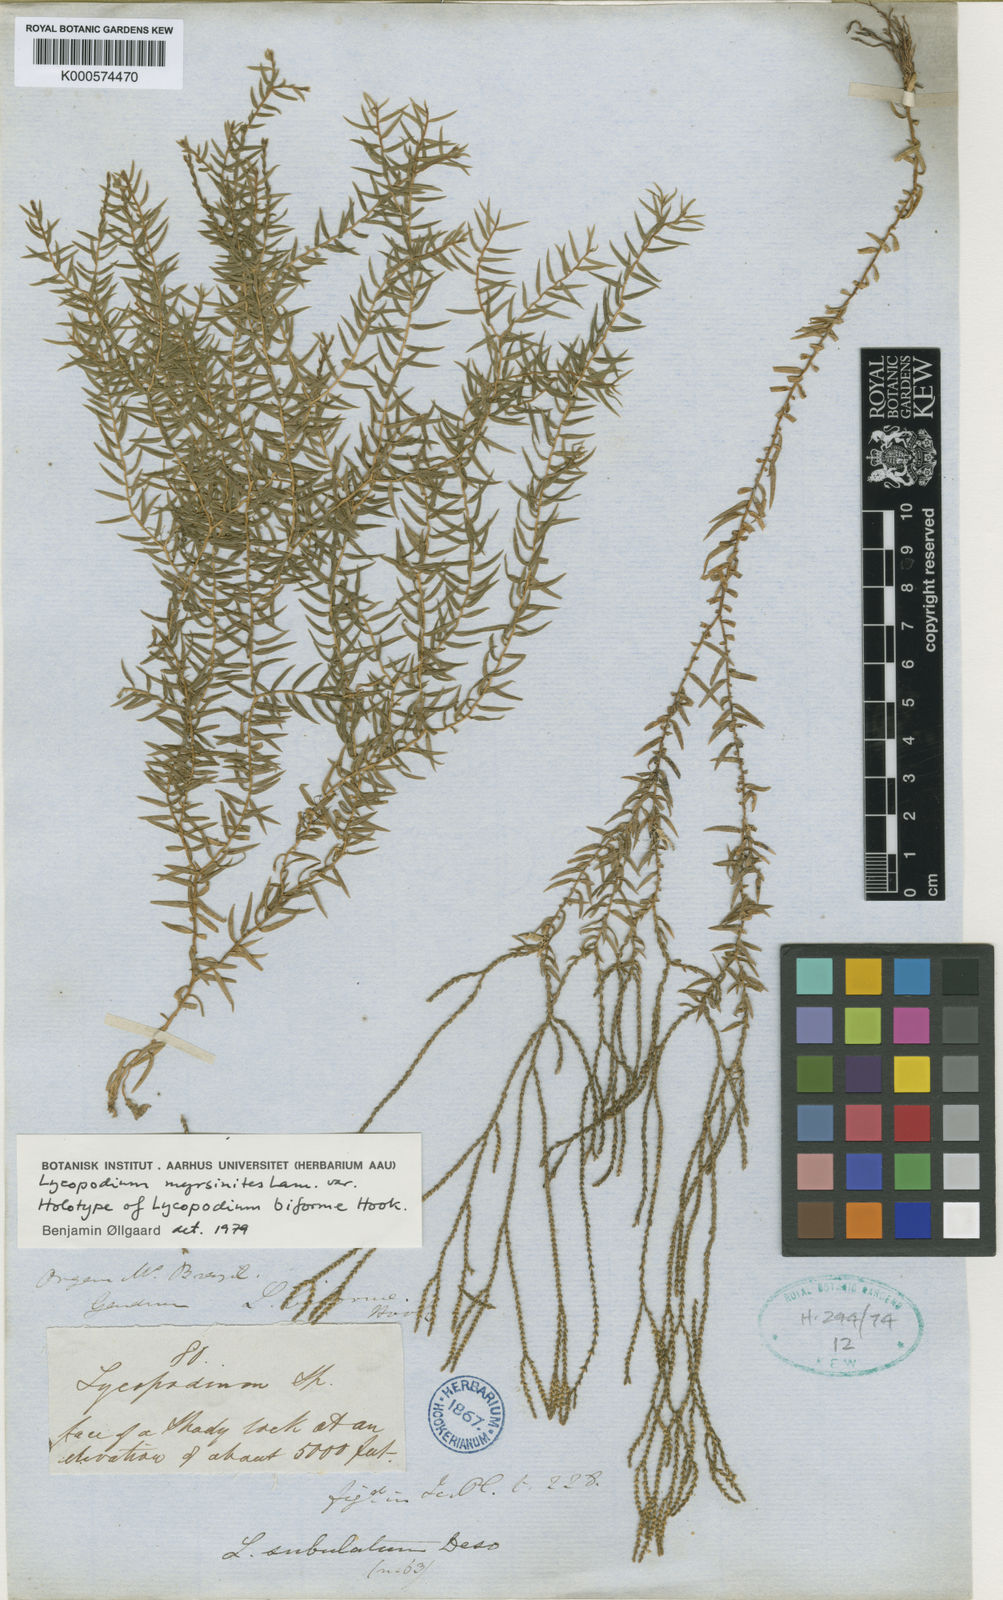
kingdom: Plantae
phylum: Tracheophyta
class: Lycopodiopsida
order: Lycopodiales
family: Lycopodiaceae
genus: Phlegmariurus
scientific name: Phlegmariurus myrsinites
